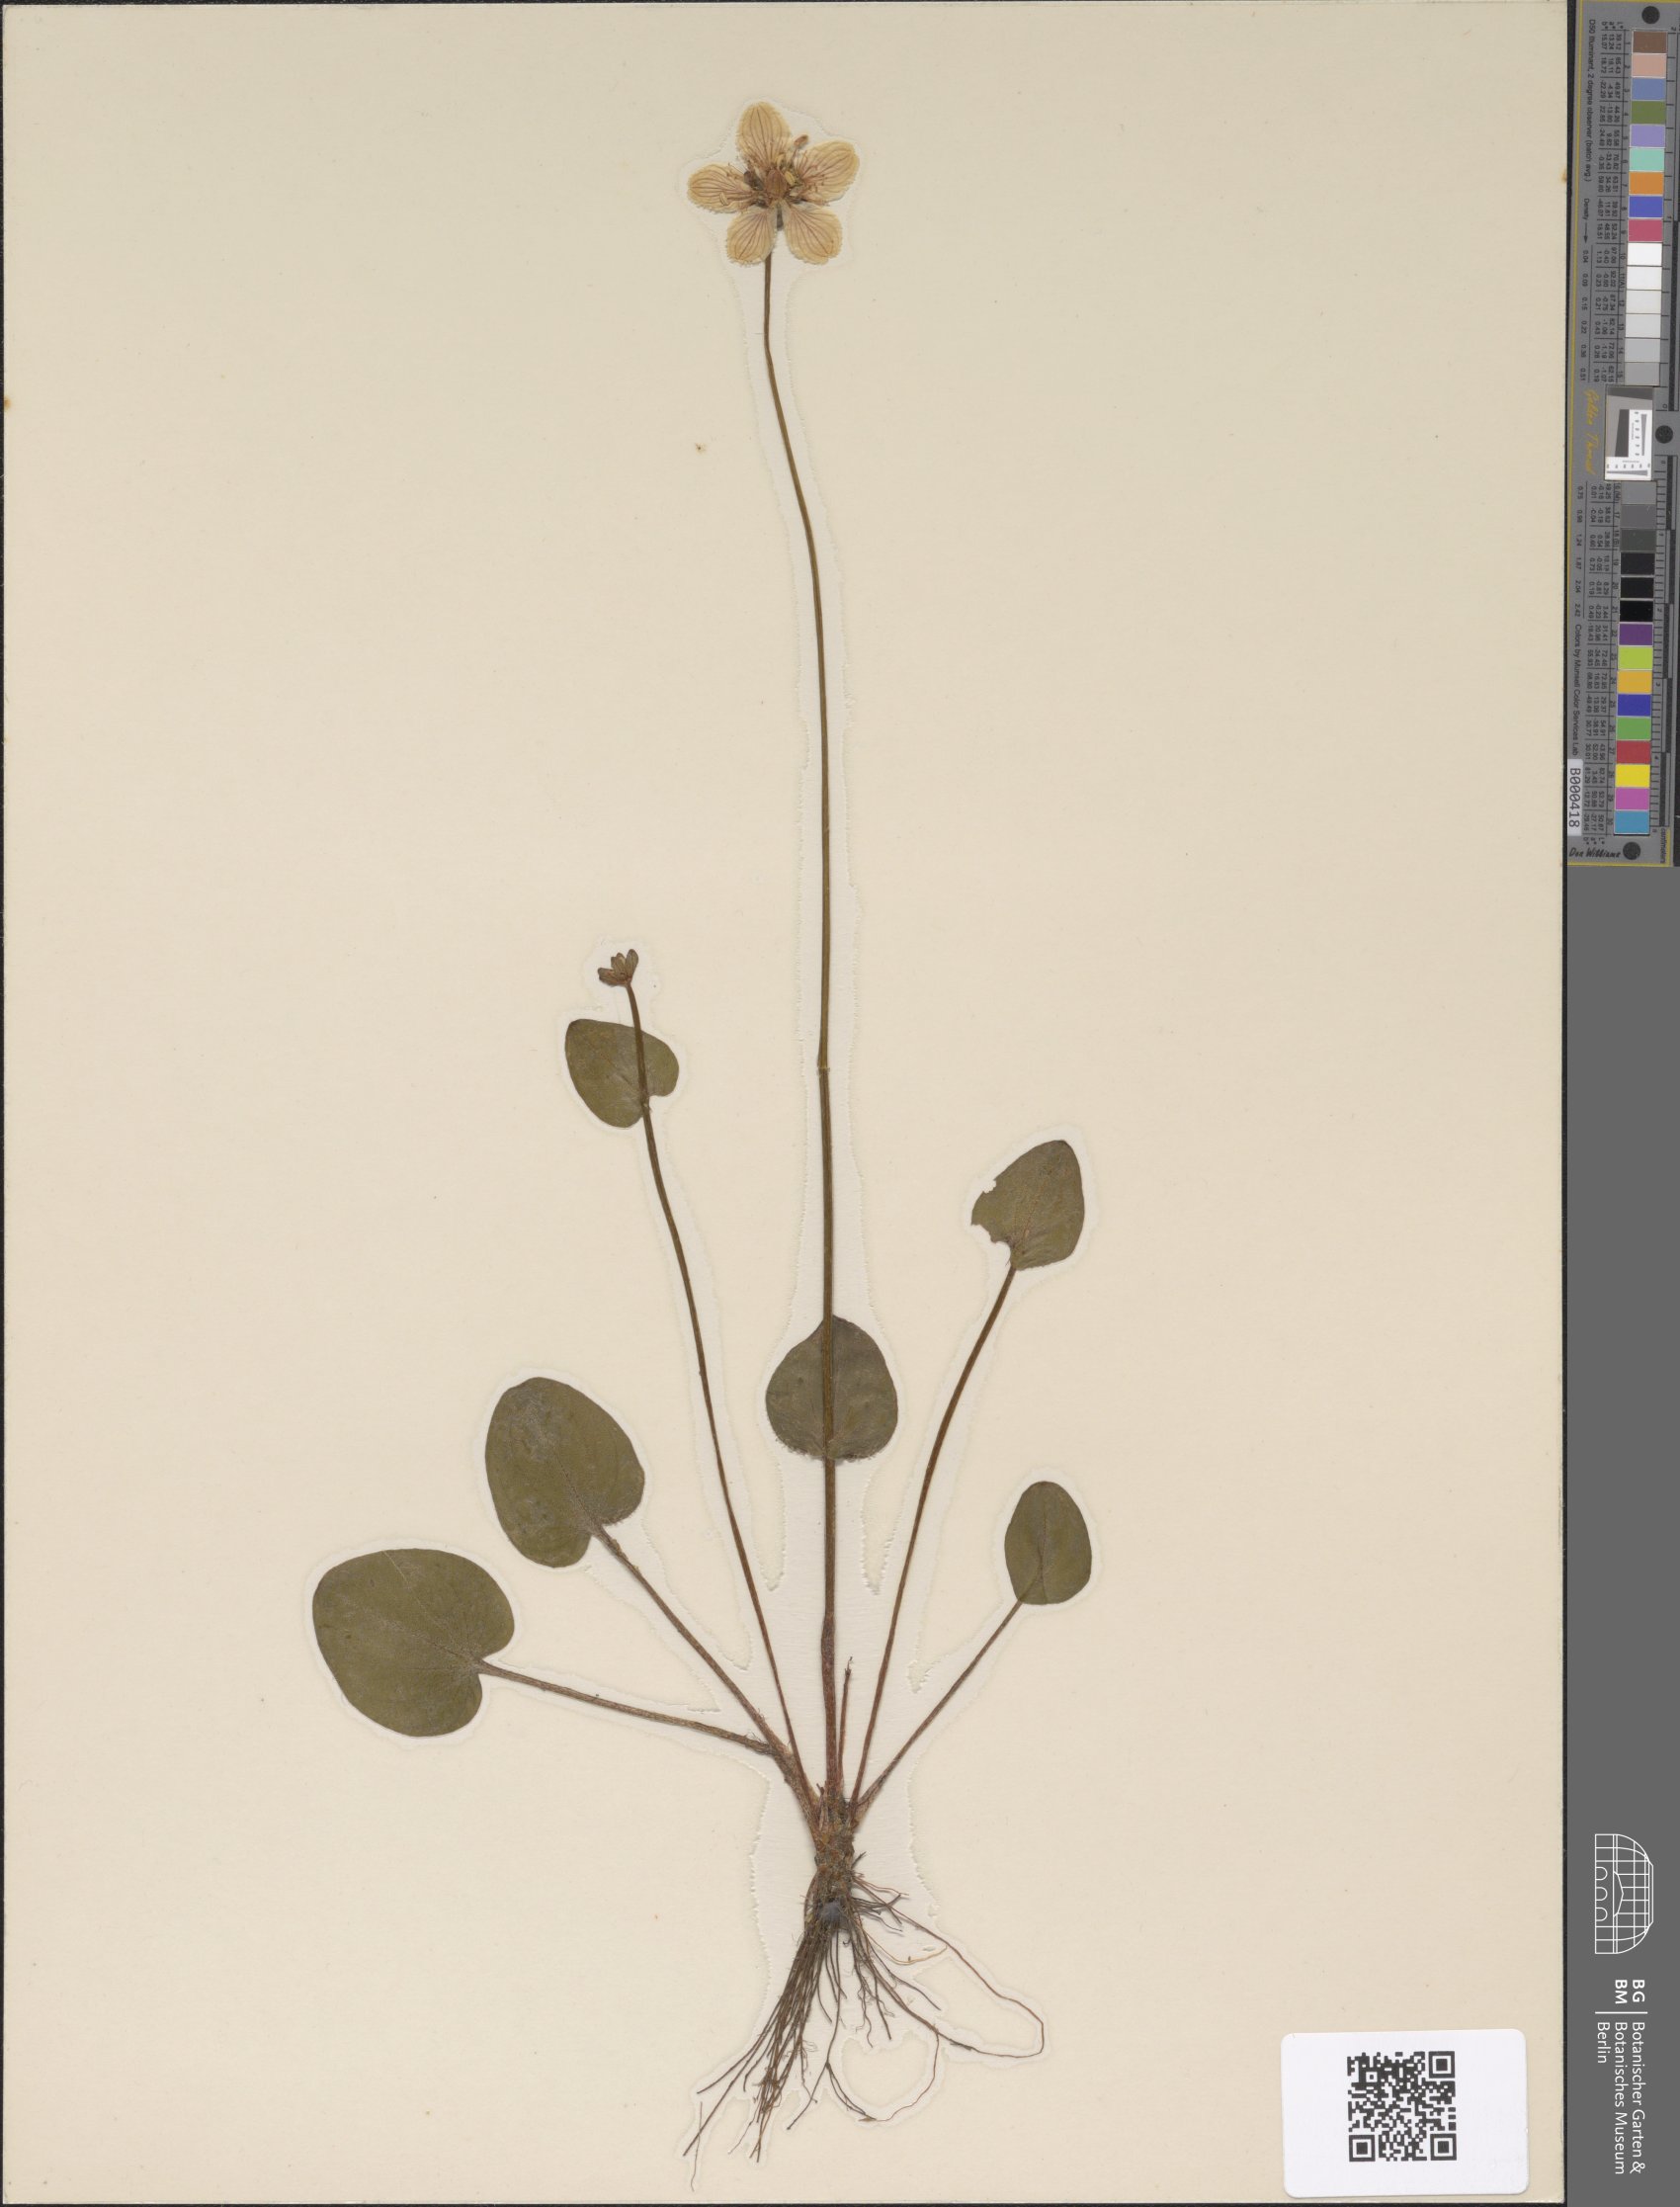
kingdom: Plantae
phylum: Tracheophyta
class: Magnoliopsida
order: Celastrales
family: Parnassiaceae
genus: Parnassia
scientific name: Parnassia palustris
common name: Grass-of-parnassus
